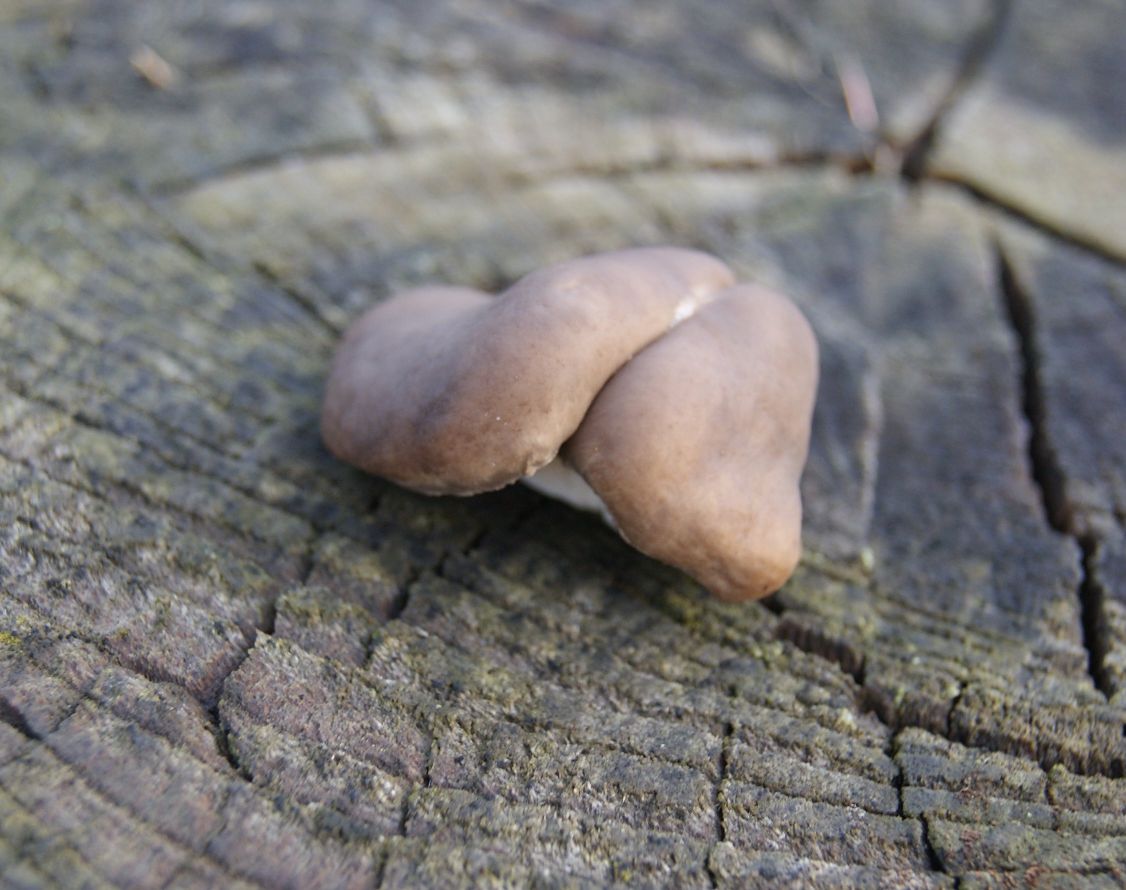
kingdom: Fungi
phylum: Basidiomycota
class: Agaricomycetes
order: Agaricales
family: Pleurotaceae
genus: Pleurotus
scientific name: Pleurotus ostreatus
